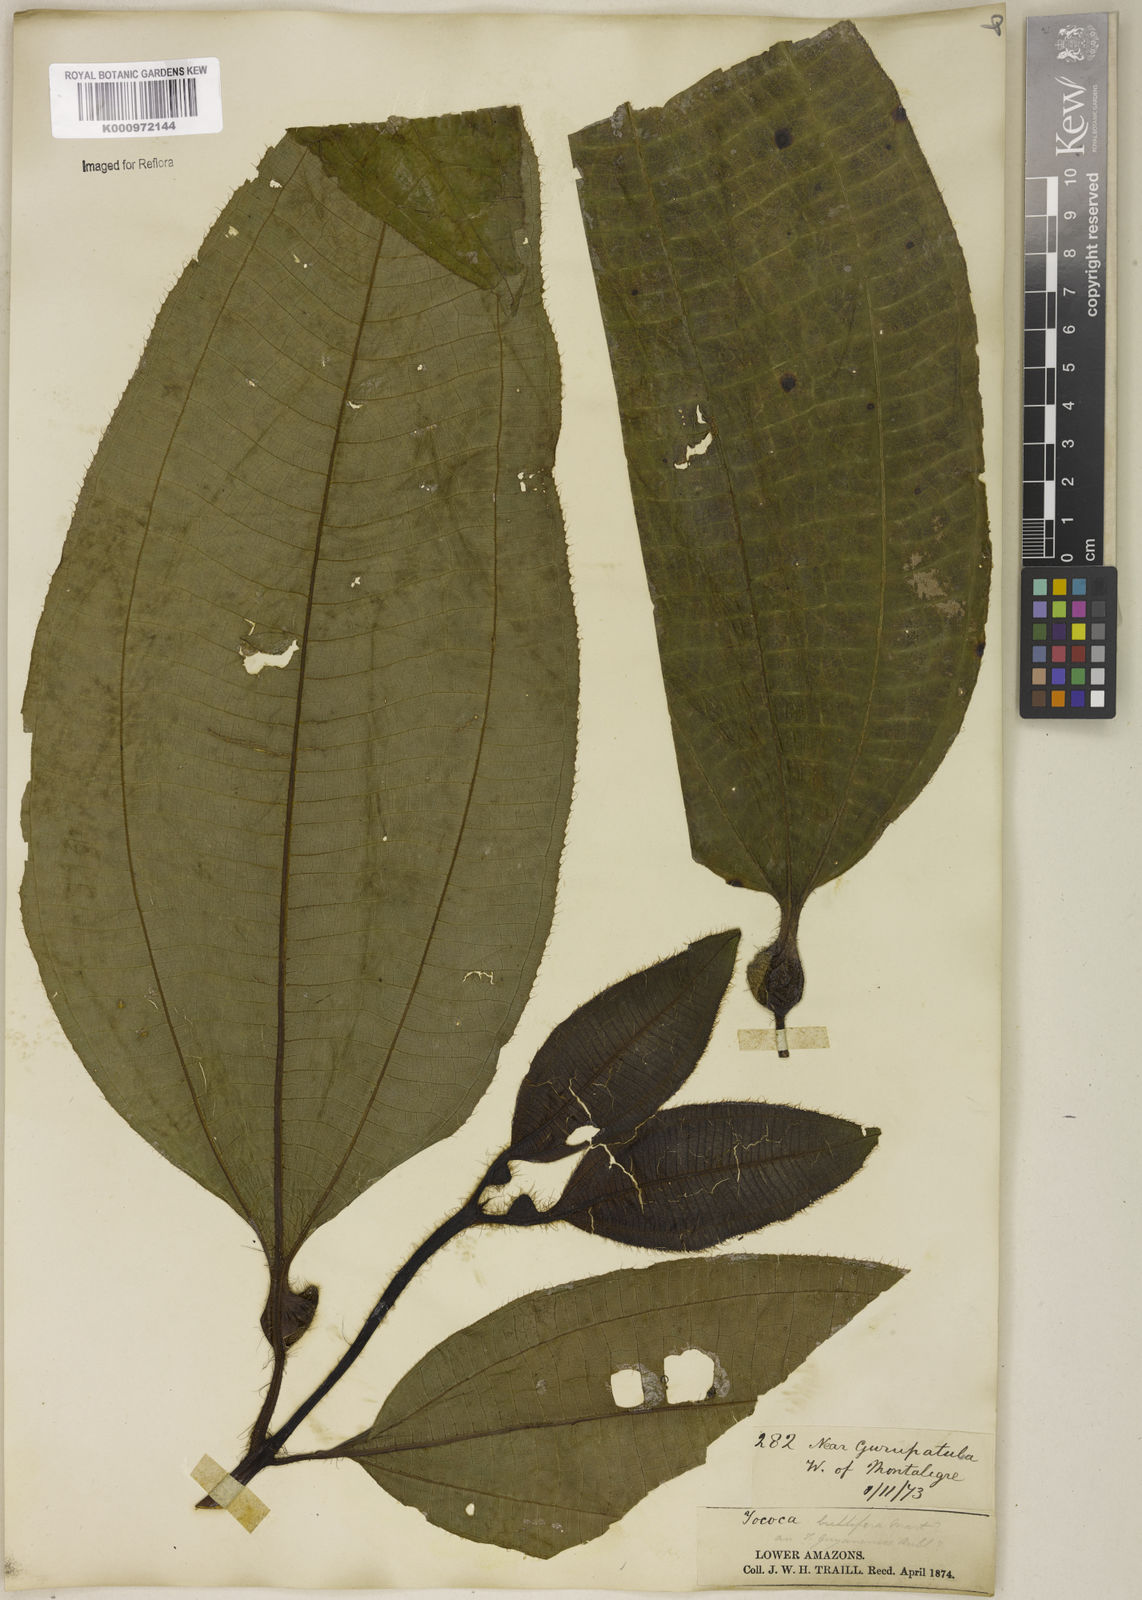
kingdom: Plantae
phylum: Tracheophyta
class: Magnoliopsida
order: Myrtales
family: Melastomataceae
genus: Miconia
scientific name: Miconia bullifera
